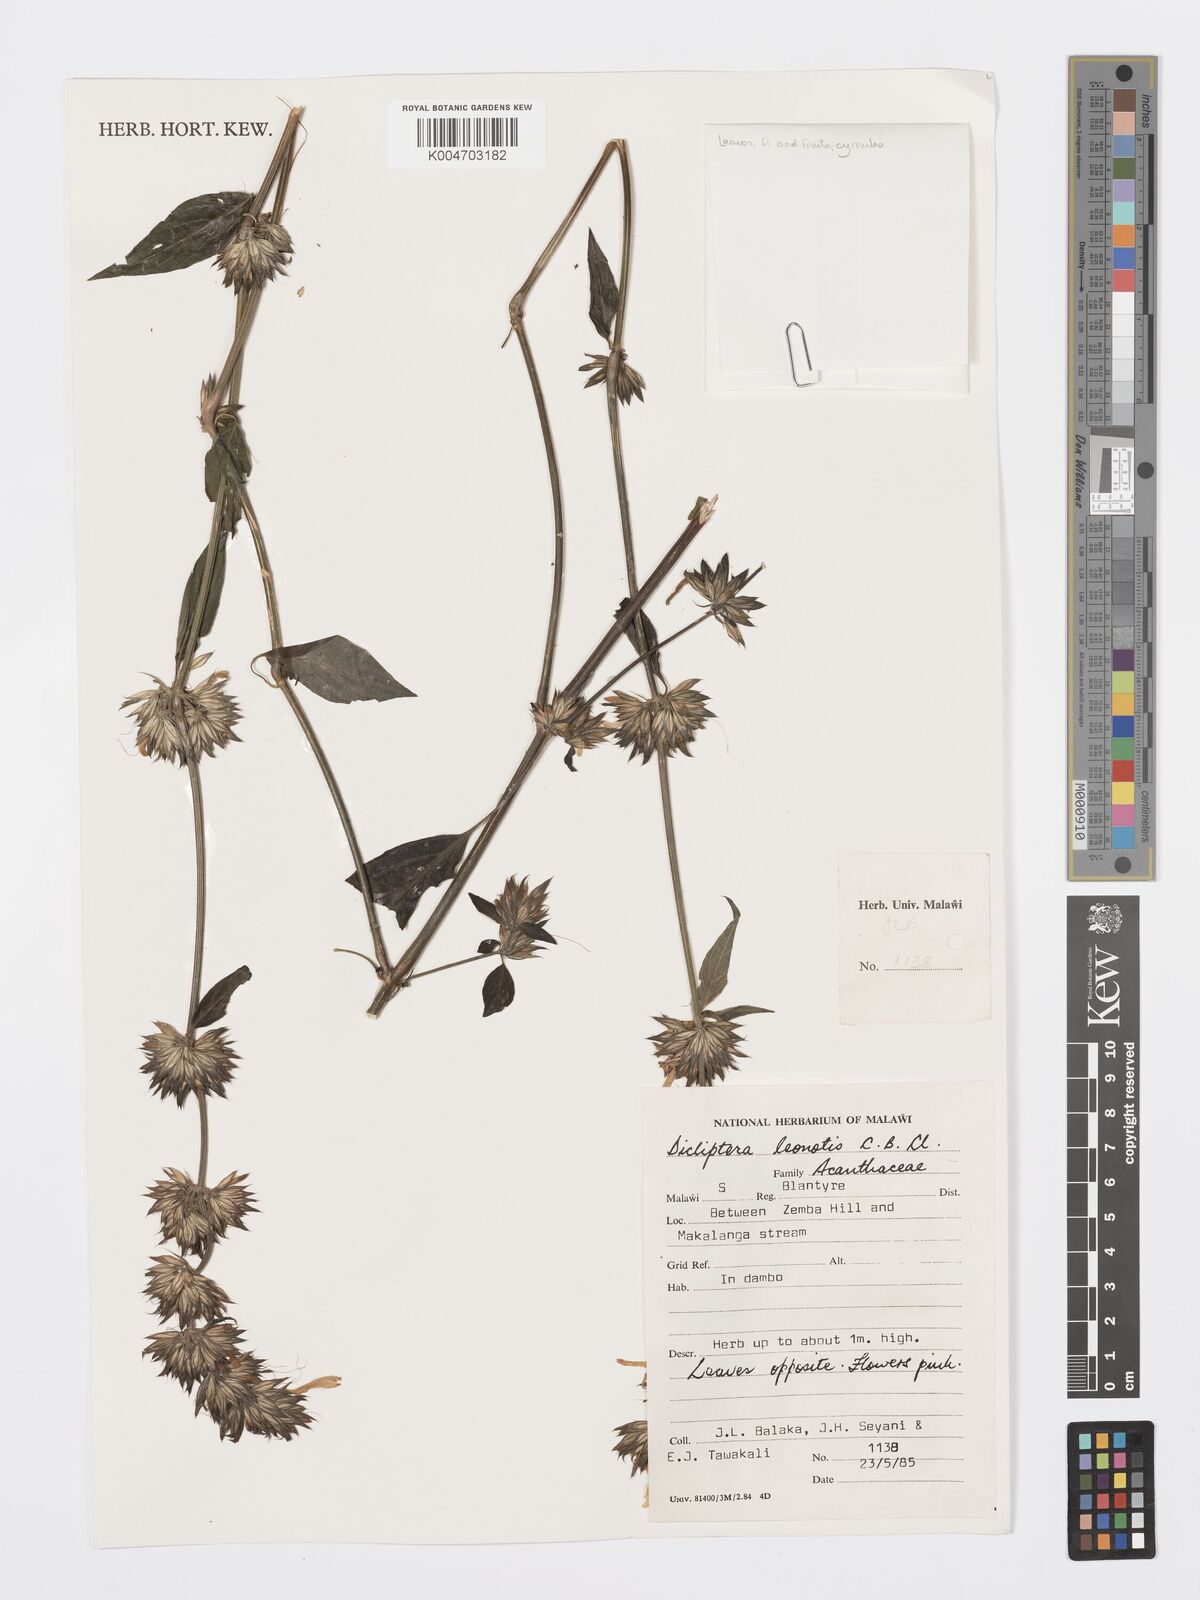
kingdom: Plantae
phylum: Tracheophyta
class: Magnoliopsida
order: Lamiales
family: Acanthaceae
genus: Dicliptera
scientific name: Dicliptera clinopodia
